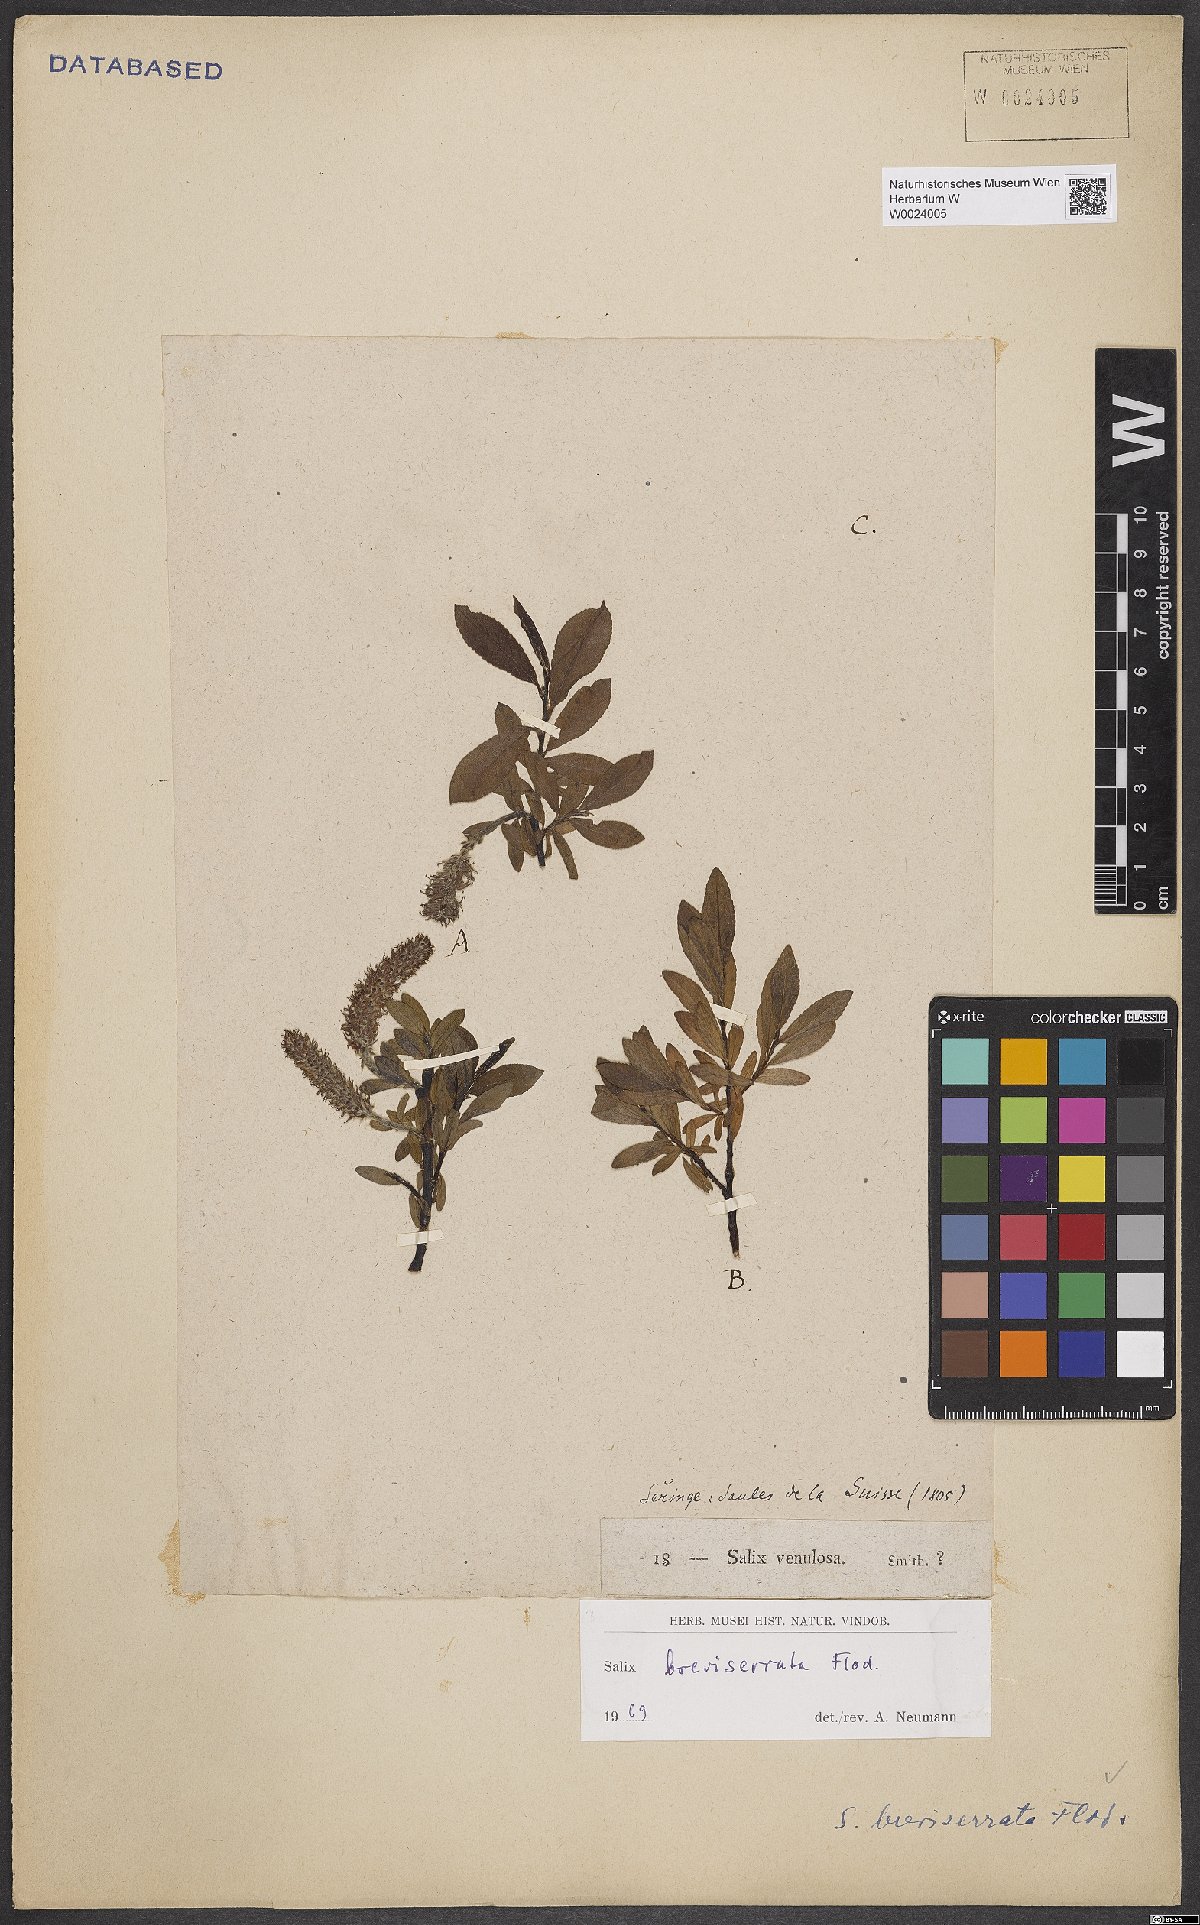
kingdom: Plantae
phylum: Tracheophyta
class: Magnoliopsida
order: Malpighiales
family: Salicaceae
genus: Salix
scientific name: Salix breviserrata
